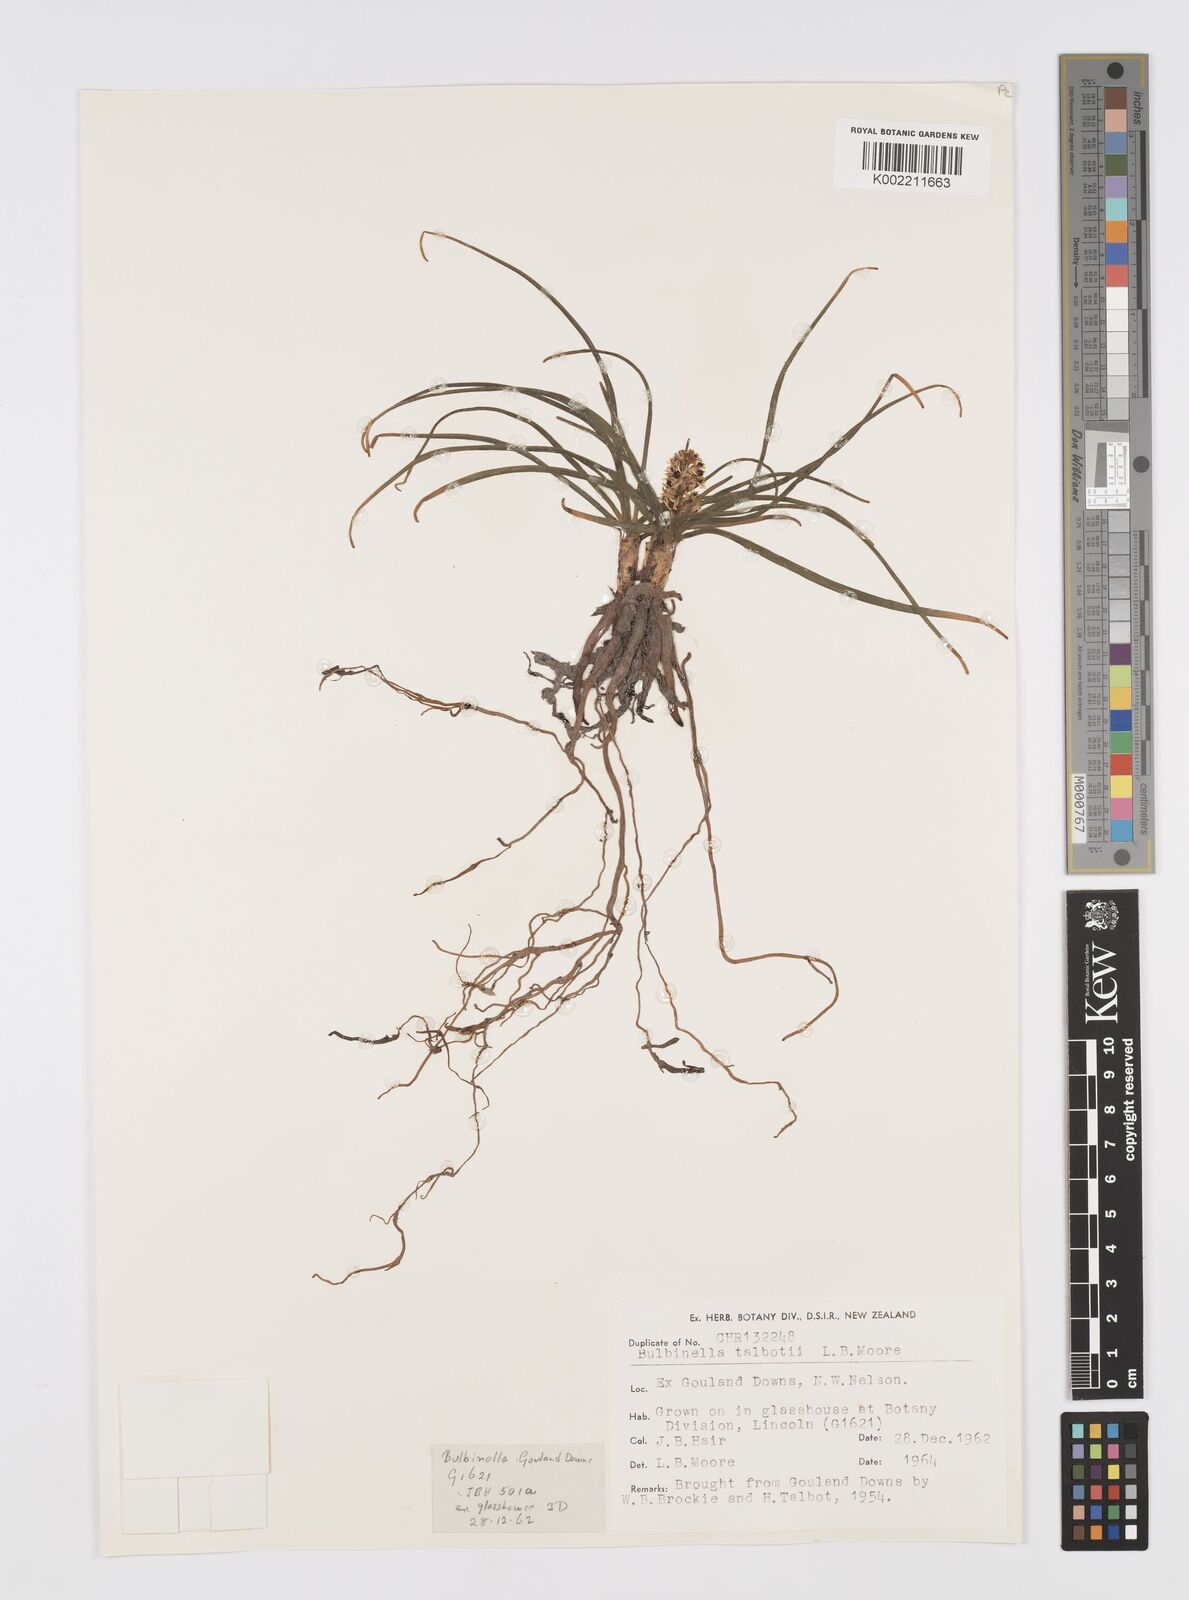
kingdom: Plantae
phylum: Tracheophyta
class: Liliopsida
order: Asparagales
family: Asphodelaceae
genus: Bulbinella
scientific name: Bulbinella talbotii
